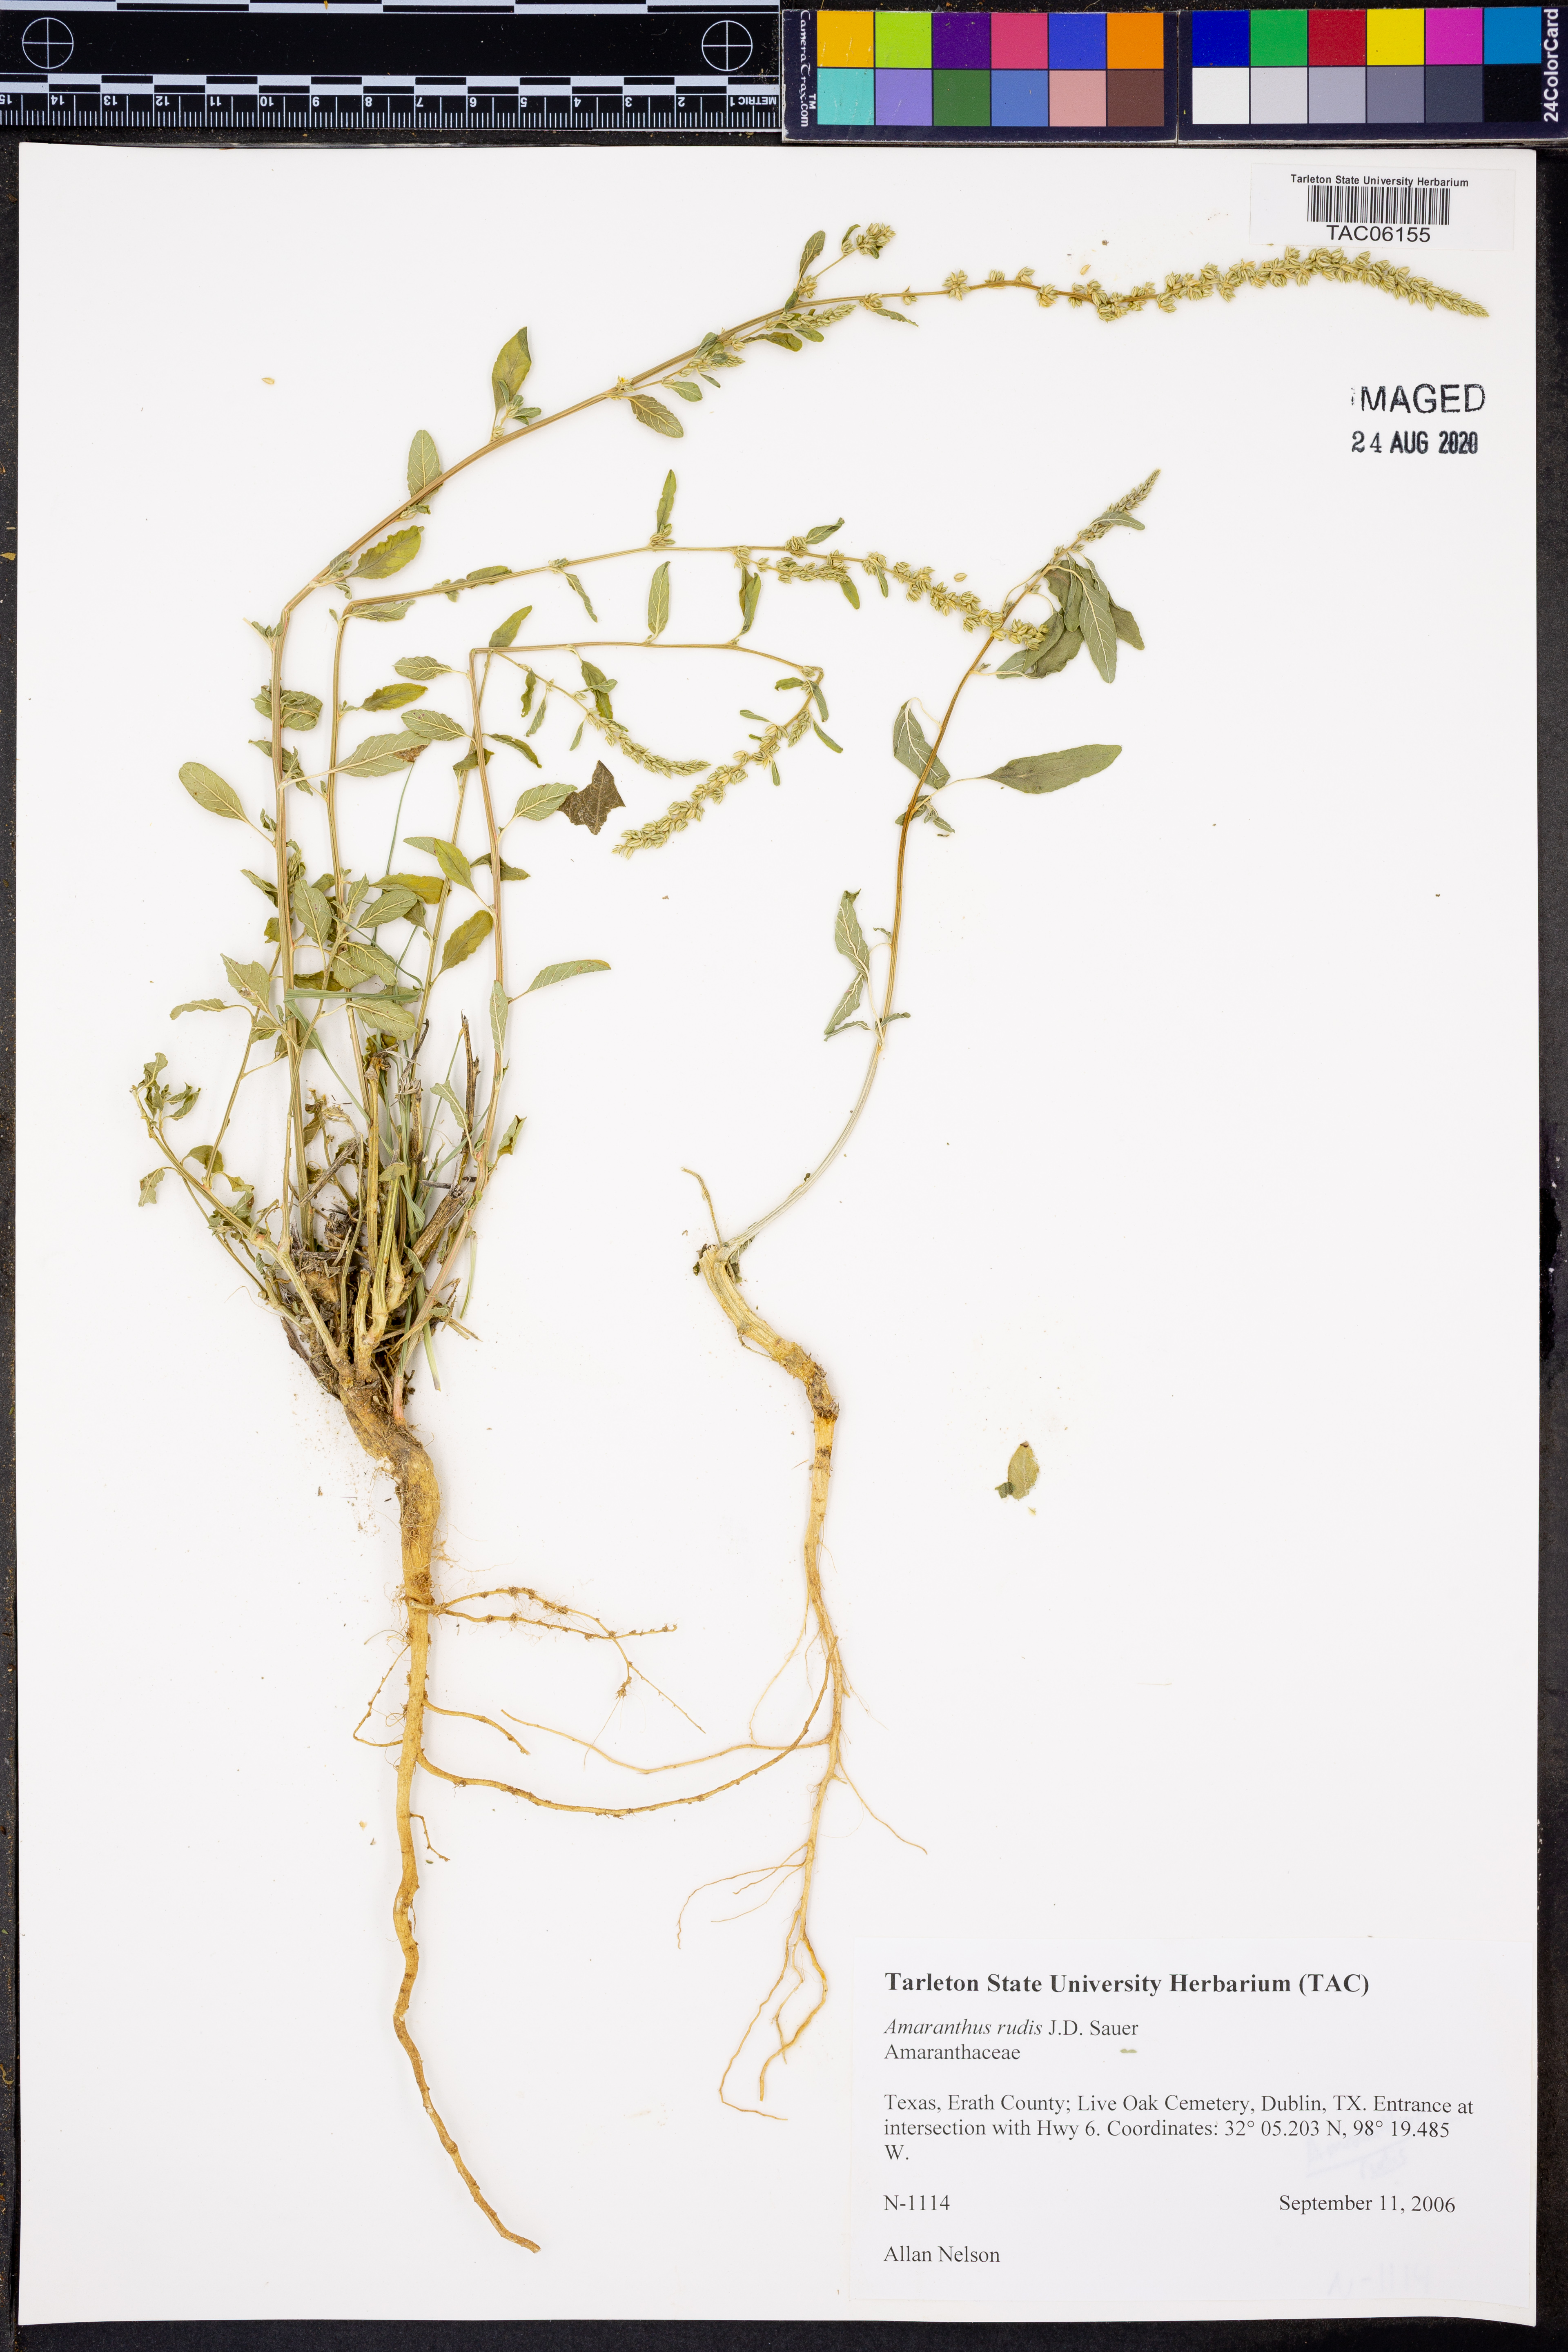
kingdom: Plantae
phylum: Tracheophyta
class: Magnoliopsida
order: Caryophyllales
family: Amaranthaceae
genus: Amaranthus
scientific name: Amaranthus tuberculatus
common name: Rough-fruit amaranth
